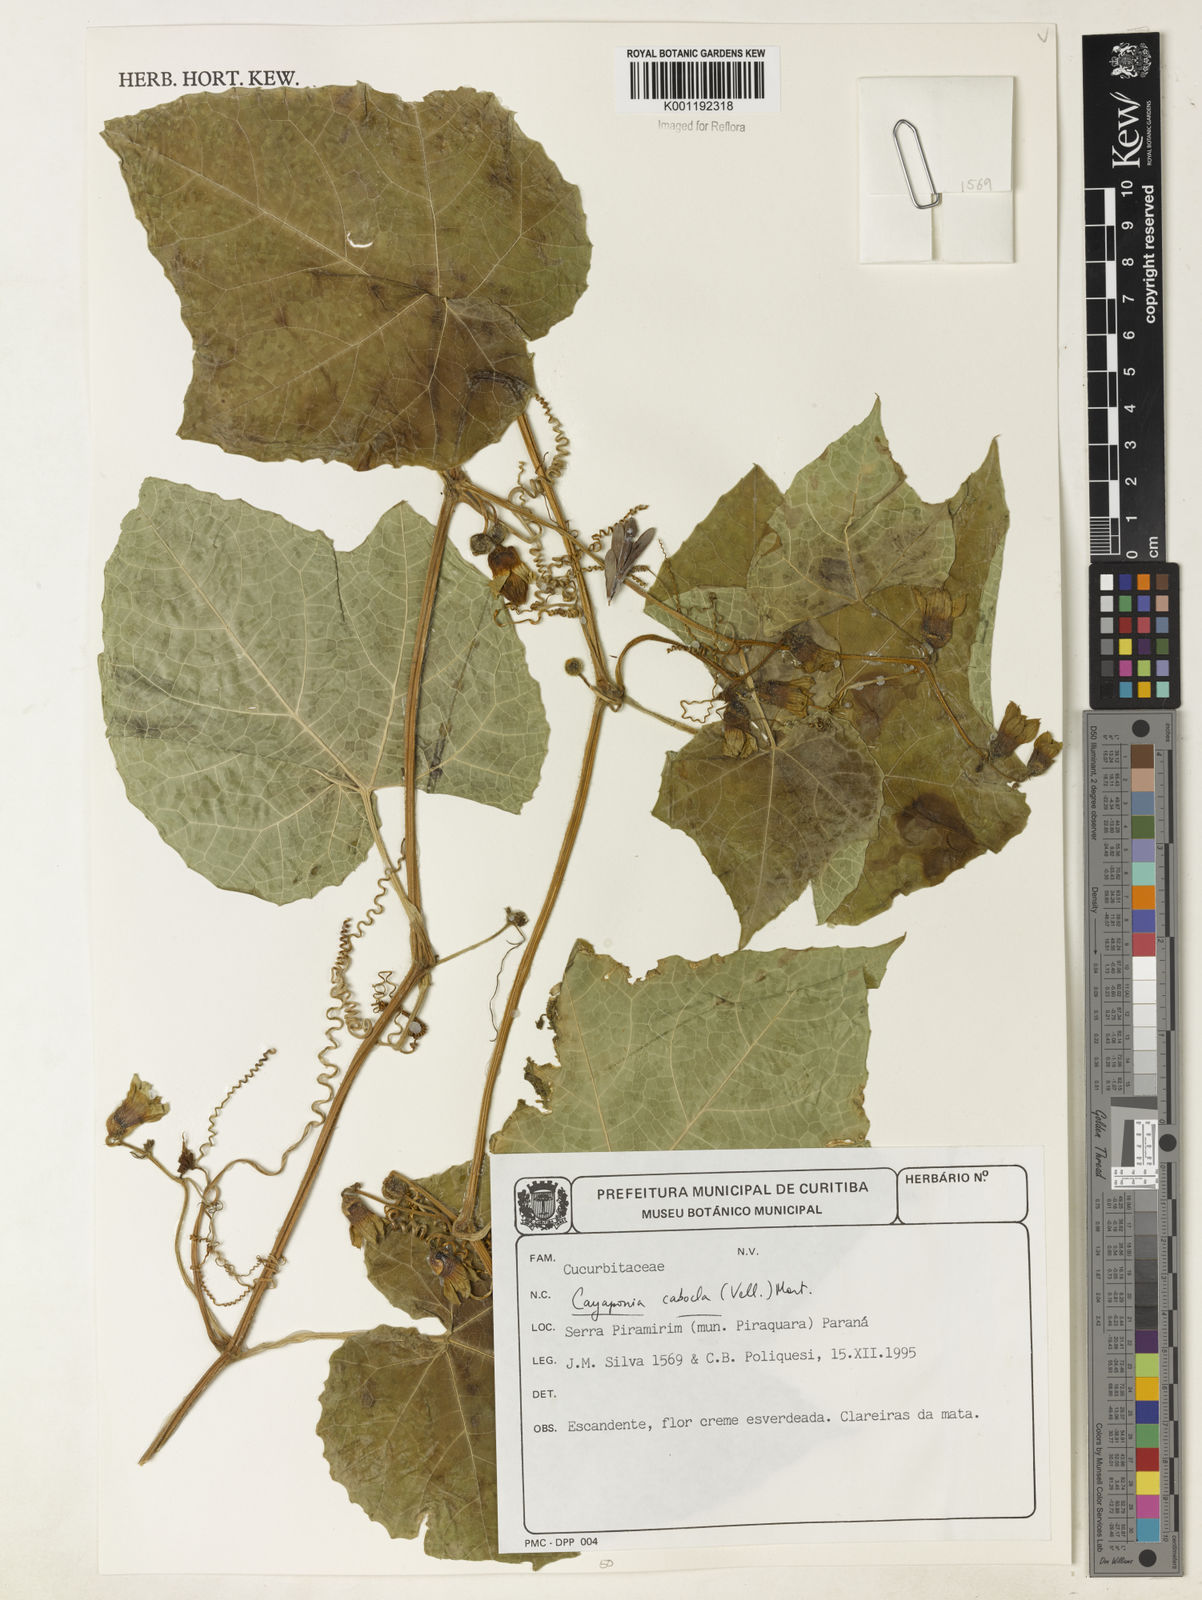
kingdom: Plantae
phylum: Tracheophyta
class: Magnoliopsida
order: Cucurbitales
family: Cucurbitaceae
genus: Cayaponia
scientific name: Cayaponia cabocla
